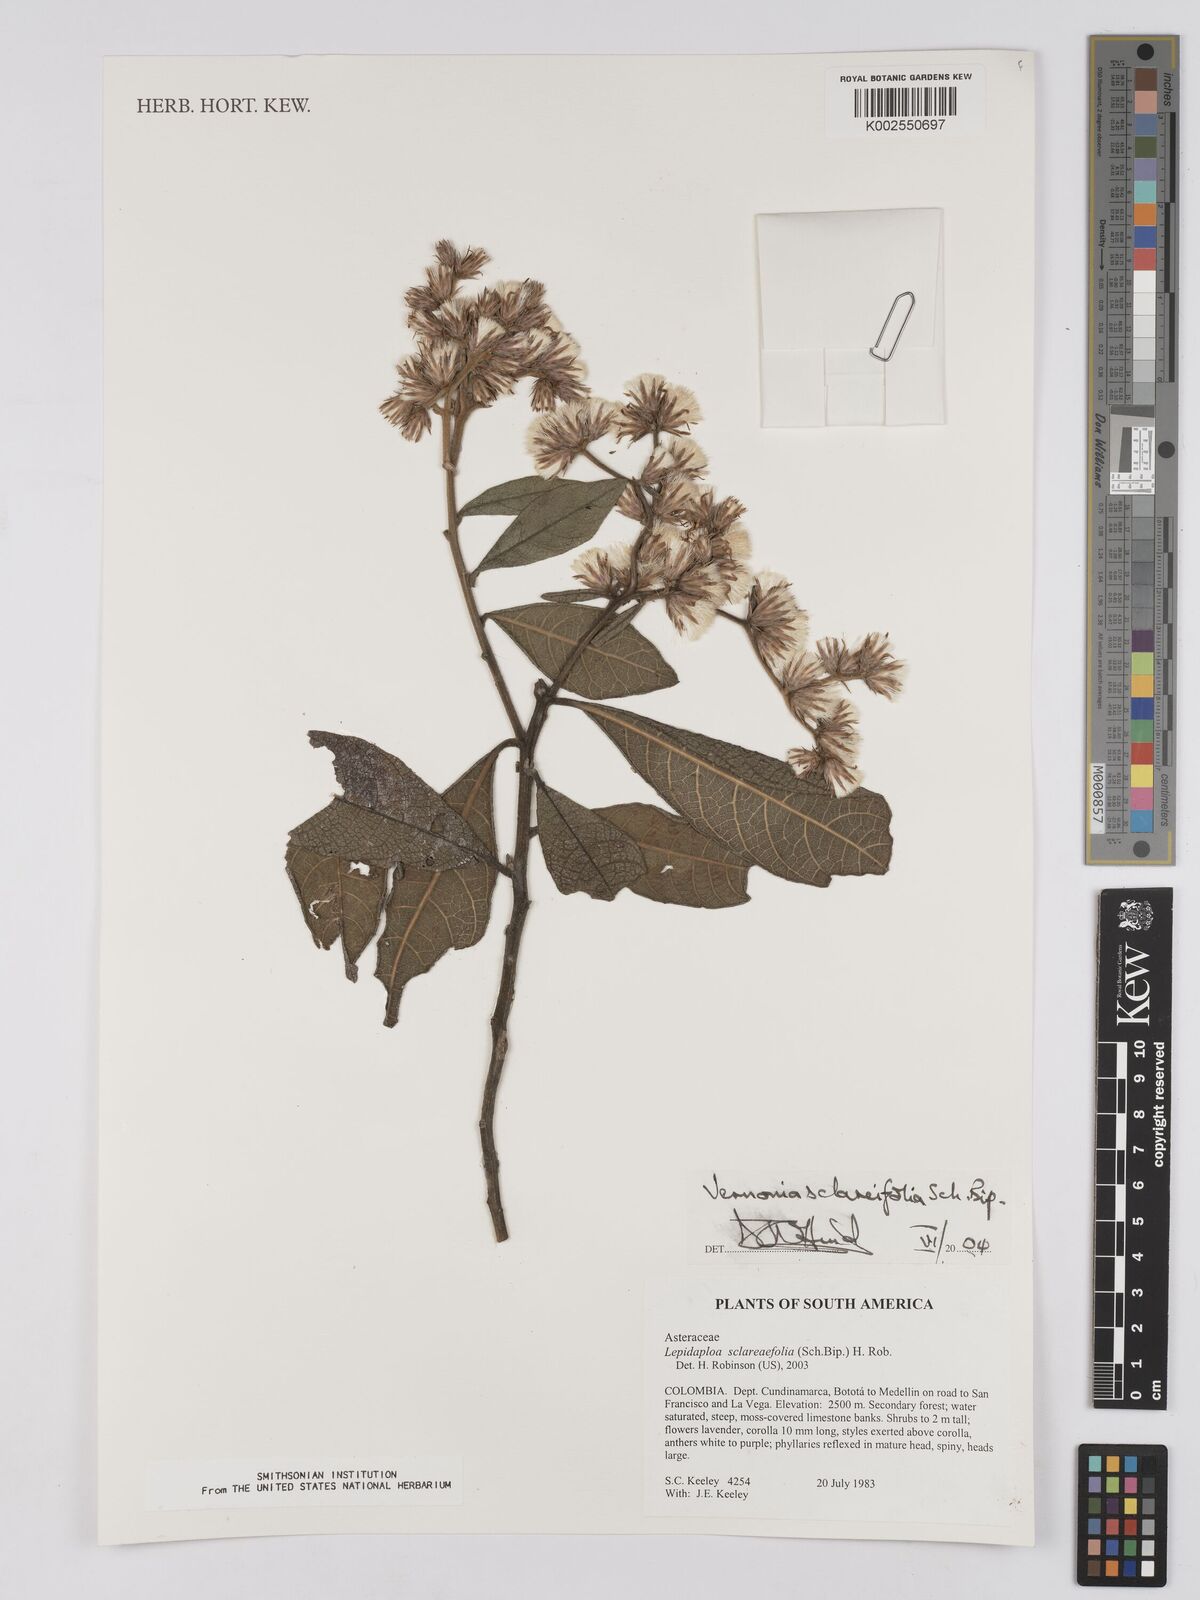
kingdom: Plantae
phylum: Tracheophyta
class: Magnoliopsida
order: Asterales
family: Asteraceae
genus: Lepidaploa
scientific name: Lepidaploa sclareifolia
